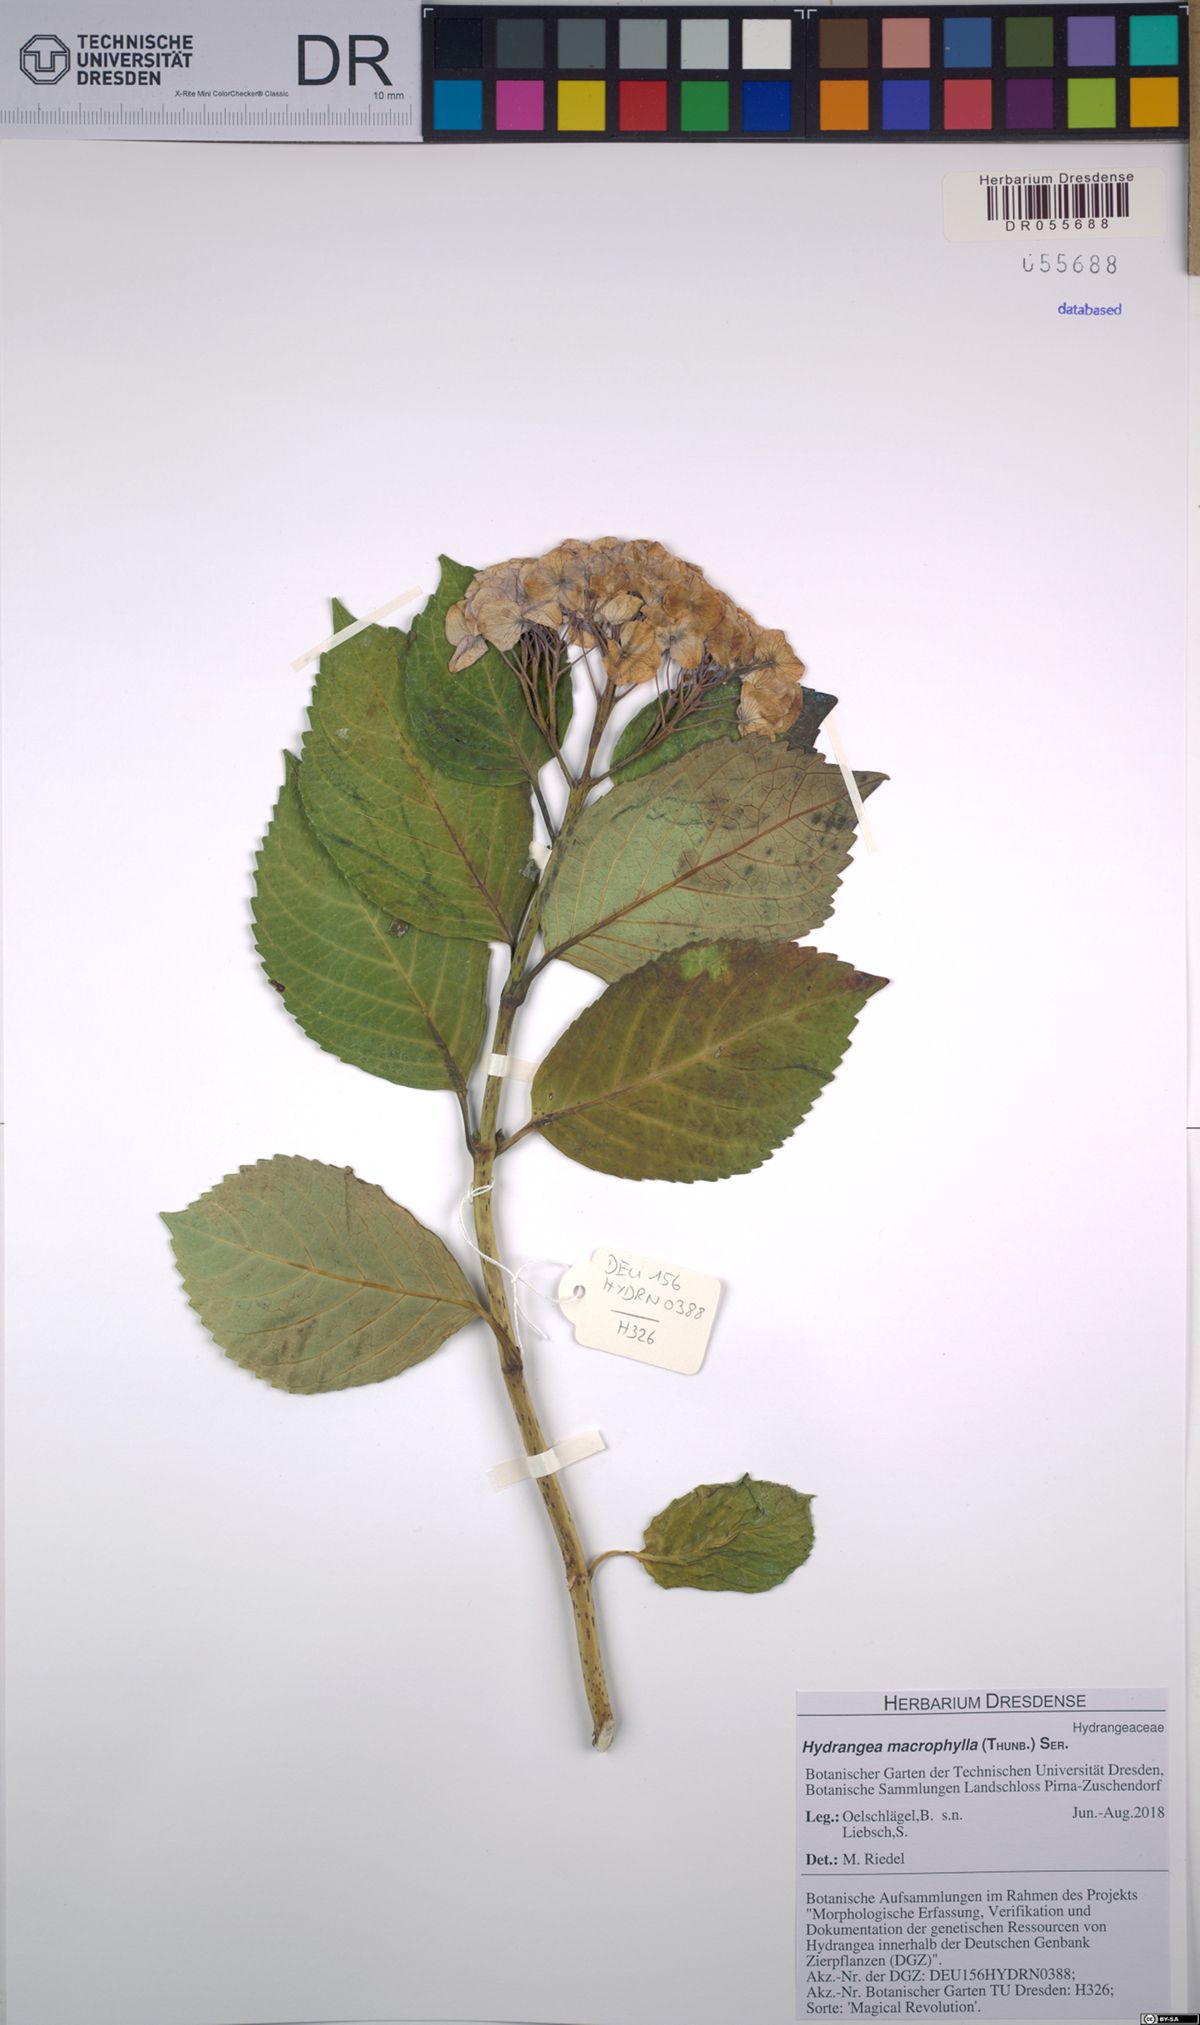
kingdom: Plantae
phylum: Tracheophyta
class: Magnoliopsida
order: Cornales
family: Hydrangeaceae
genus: Hydrangea
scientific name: Hydrangea macrophylla
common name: Hydrangea
